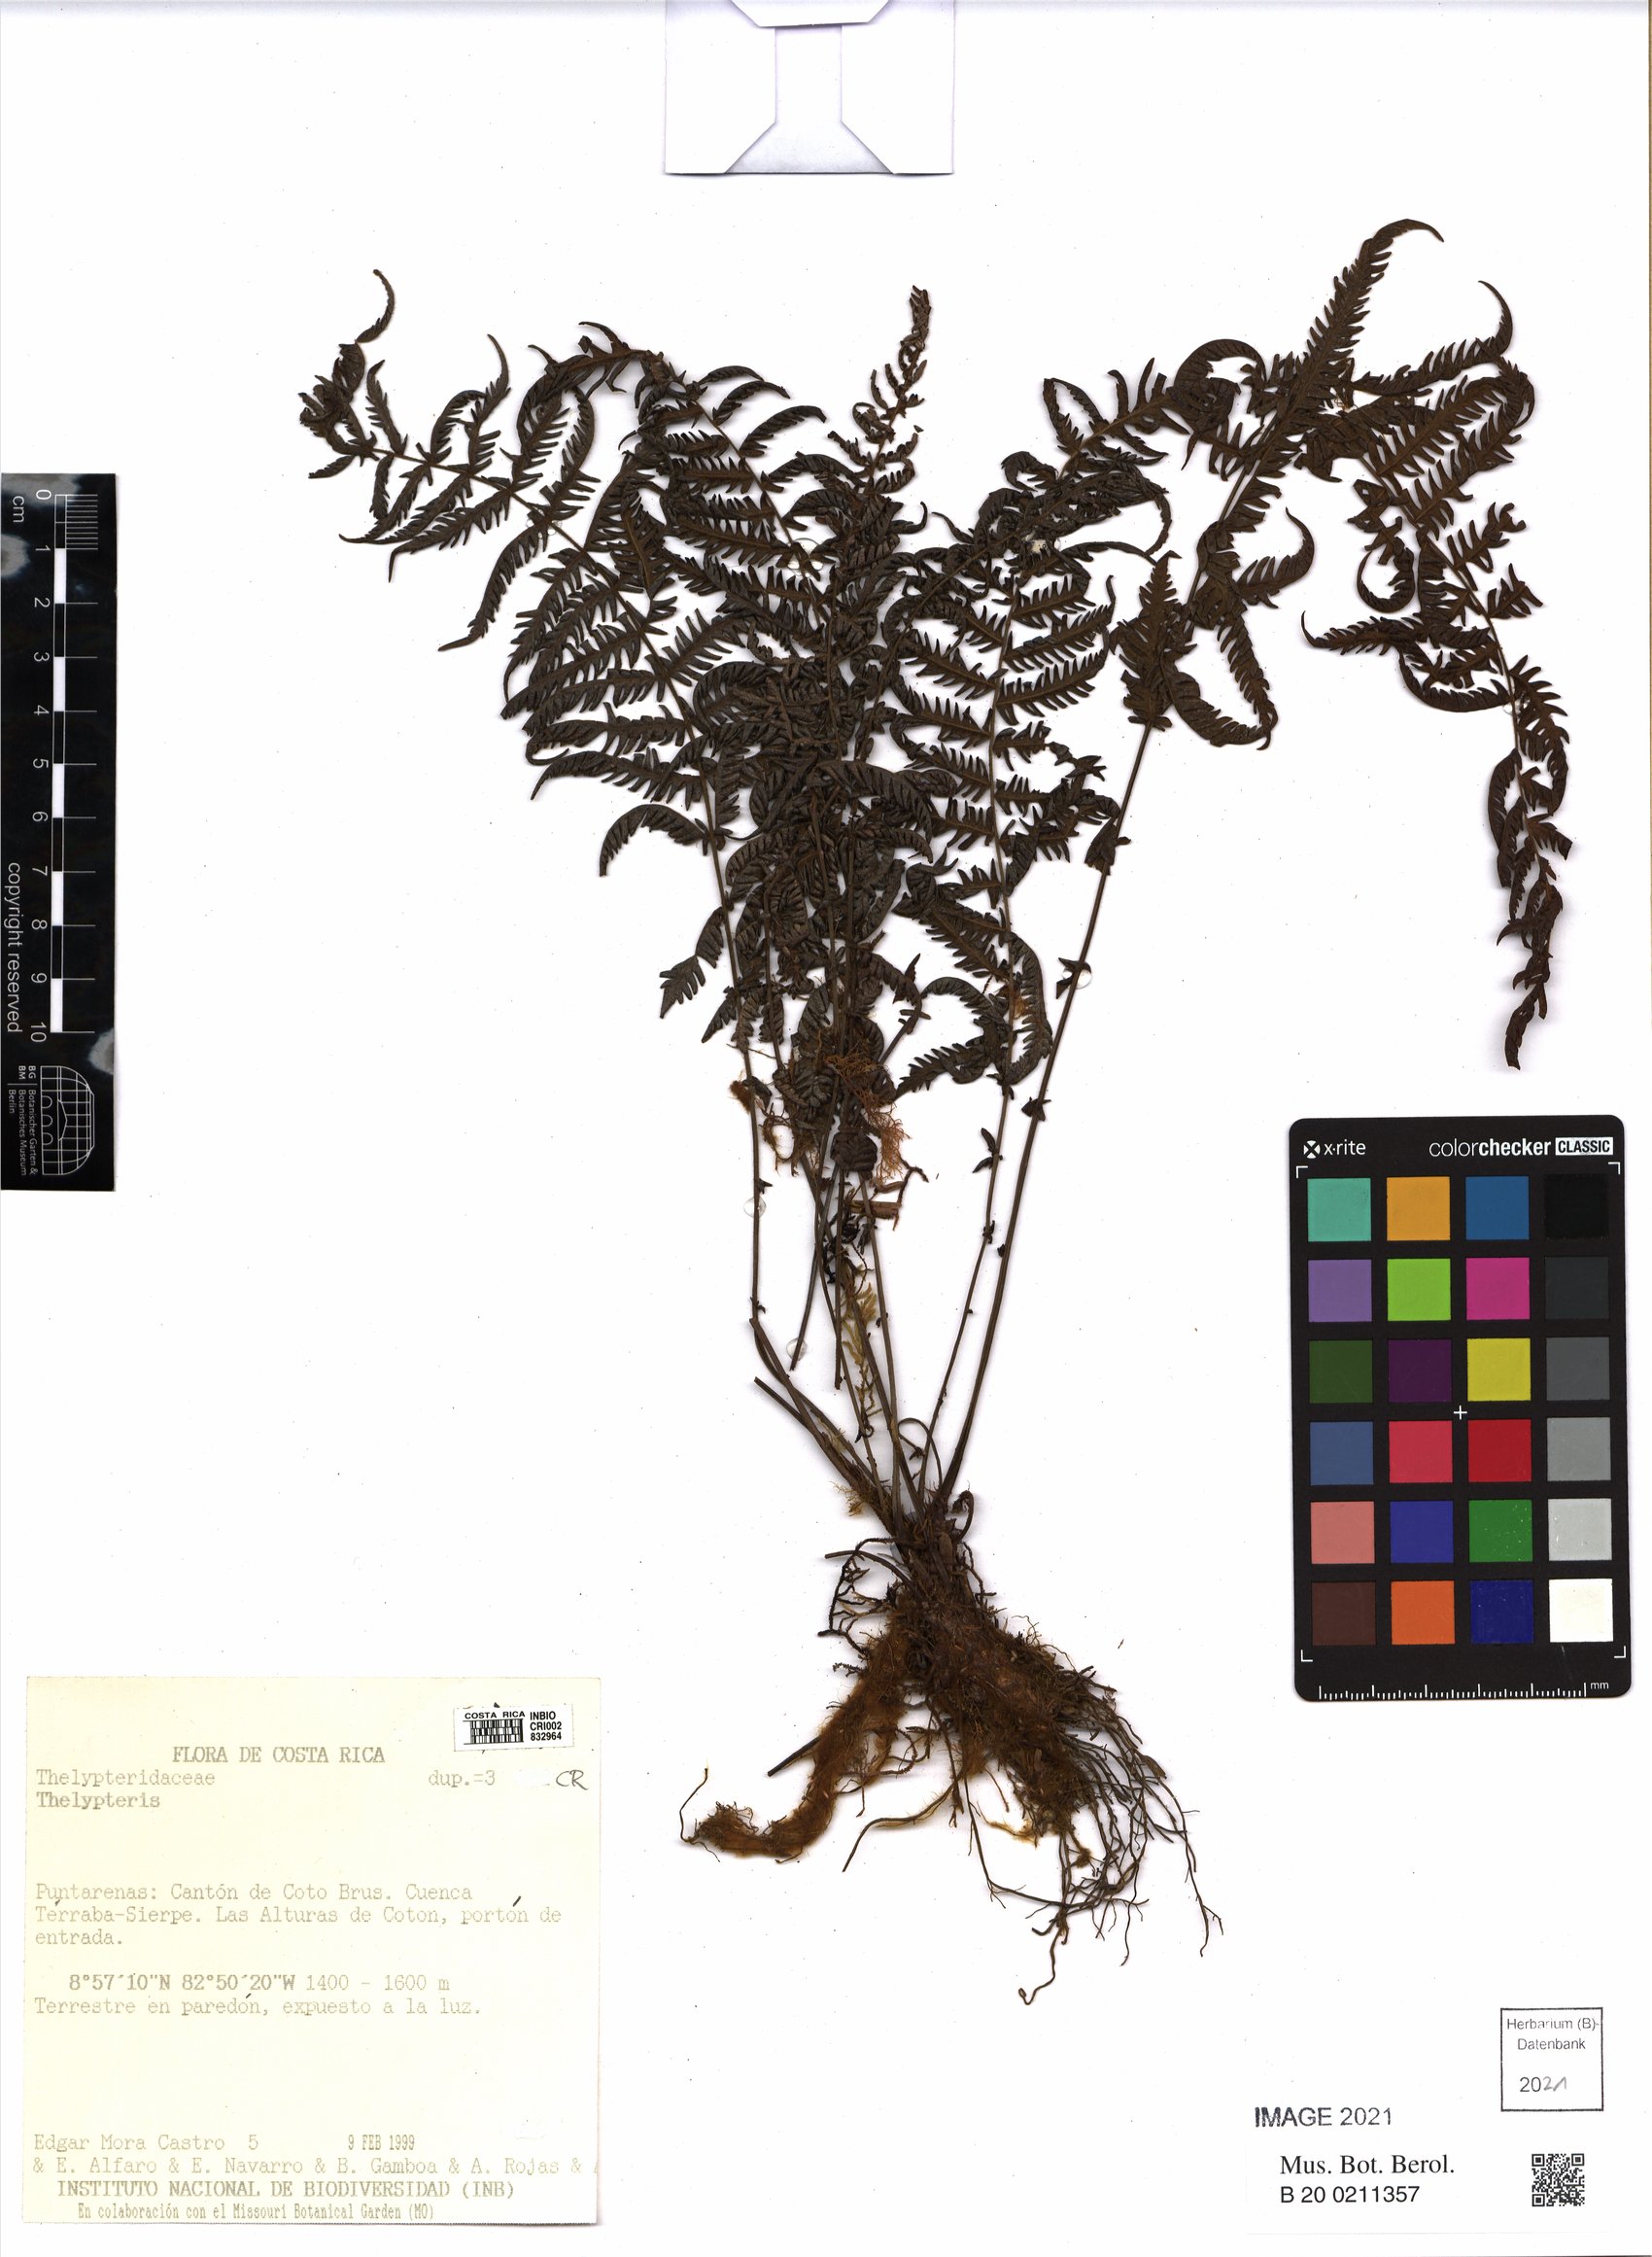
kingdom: Plantae
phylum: Tracheophyta
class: Polypodiopsida
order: Polypodiales
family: Thelypteridaceae
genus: Thelypteris
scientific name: Thelypteris
